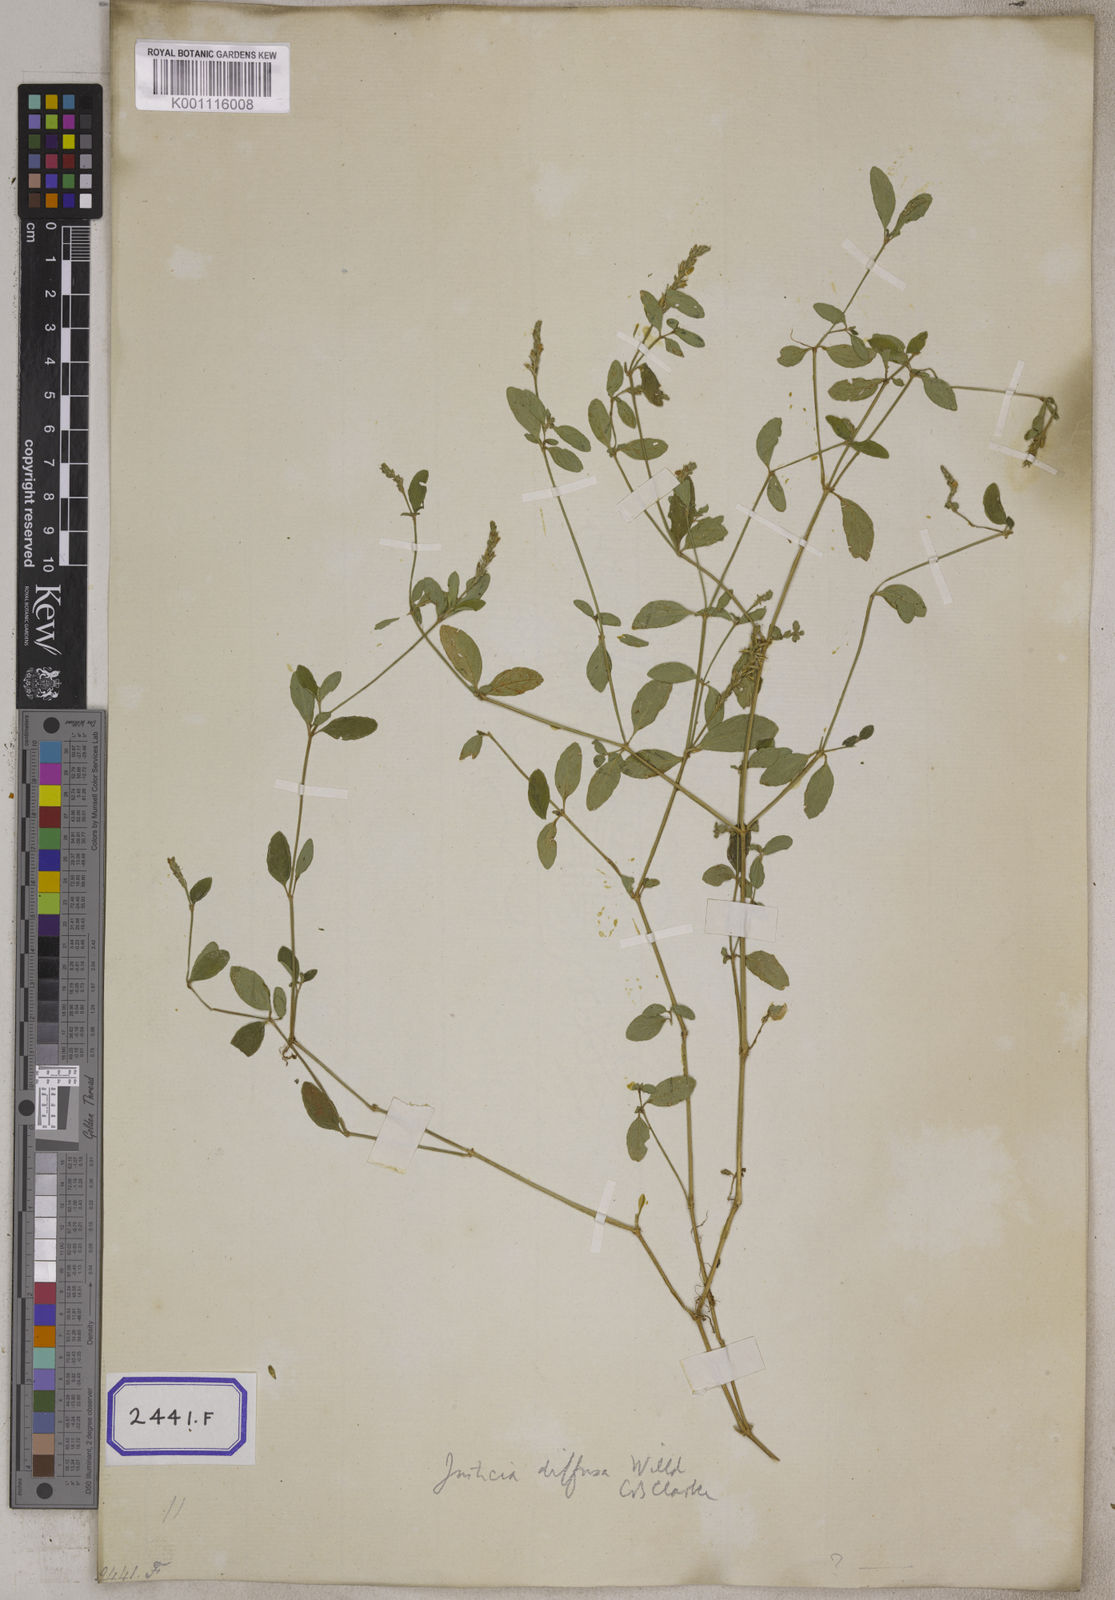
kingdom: Plantae
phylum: Tracheophyta
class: Magnoliopsida
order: Lamiales
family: Acanthaceae
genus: Rostellularia
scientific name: Rostellularia procumbens
